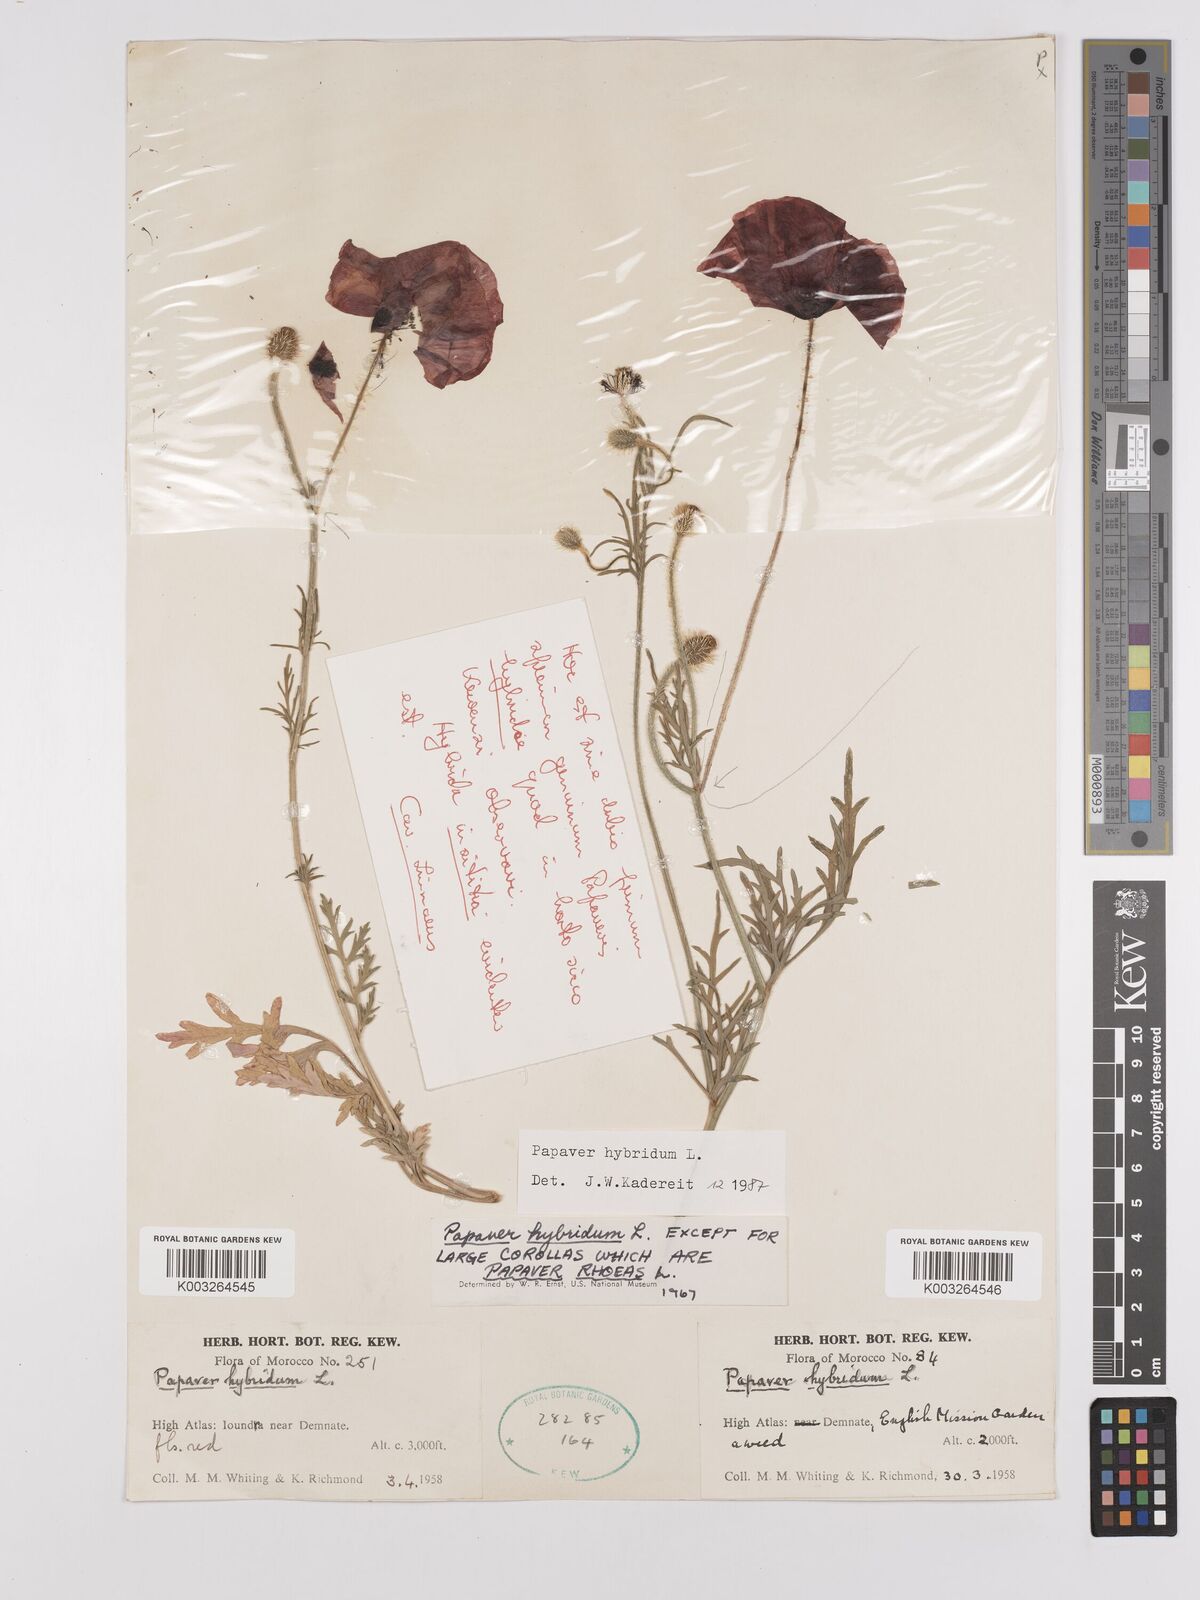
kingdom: Plantae
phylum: Tracheophyta
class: Magnoliopsida
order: Ranunculales
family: Papaveraceae
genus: Papaver
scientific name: Papaver
